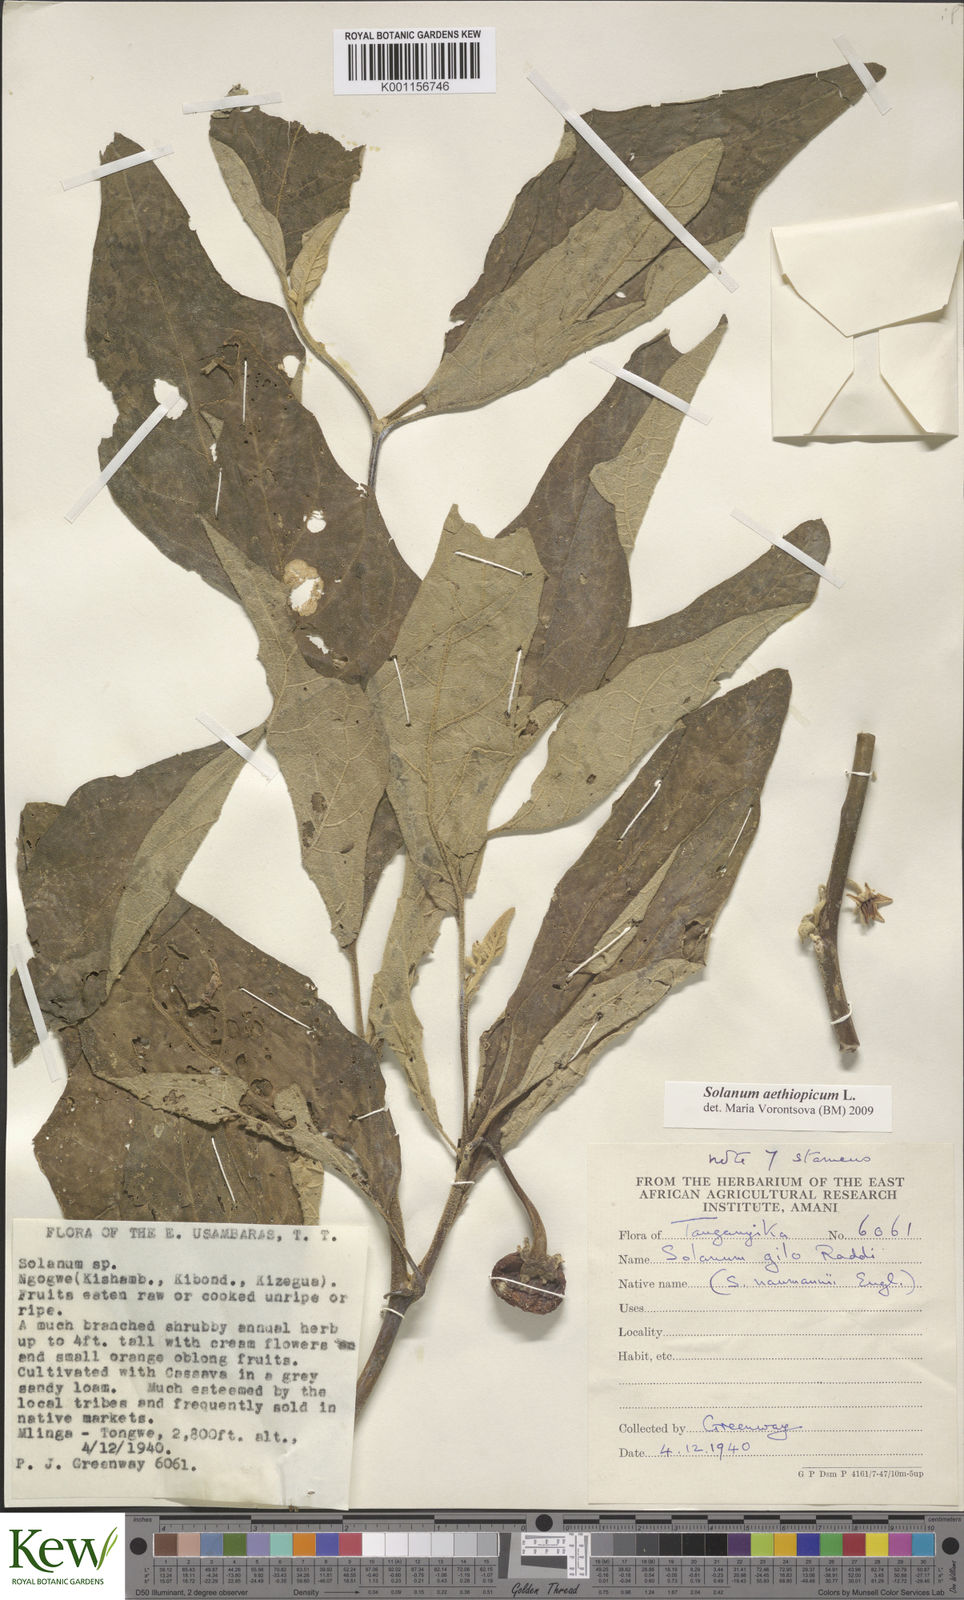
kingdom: Plantae
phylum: Tracheophyta
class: Magnoliopsida
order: Solanales
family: Solanaceae
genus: Solanum
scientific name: Solanum aethiopicum
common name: Gilo
